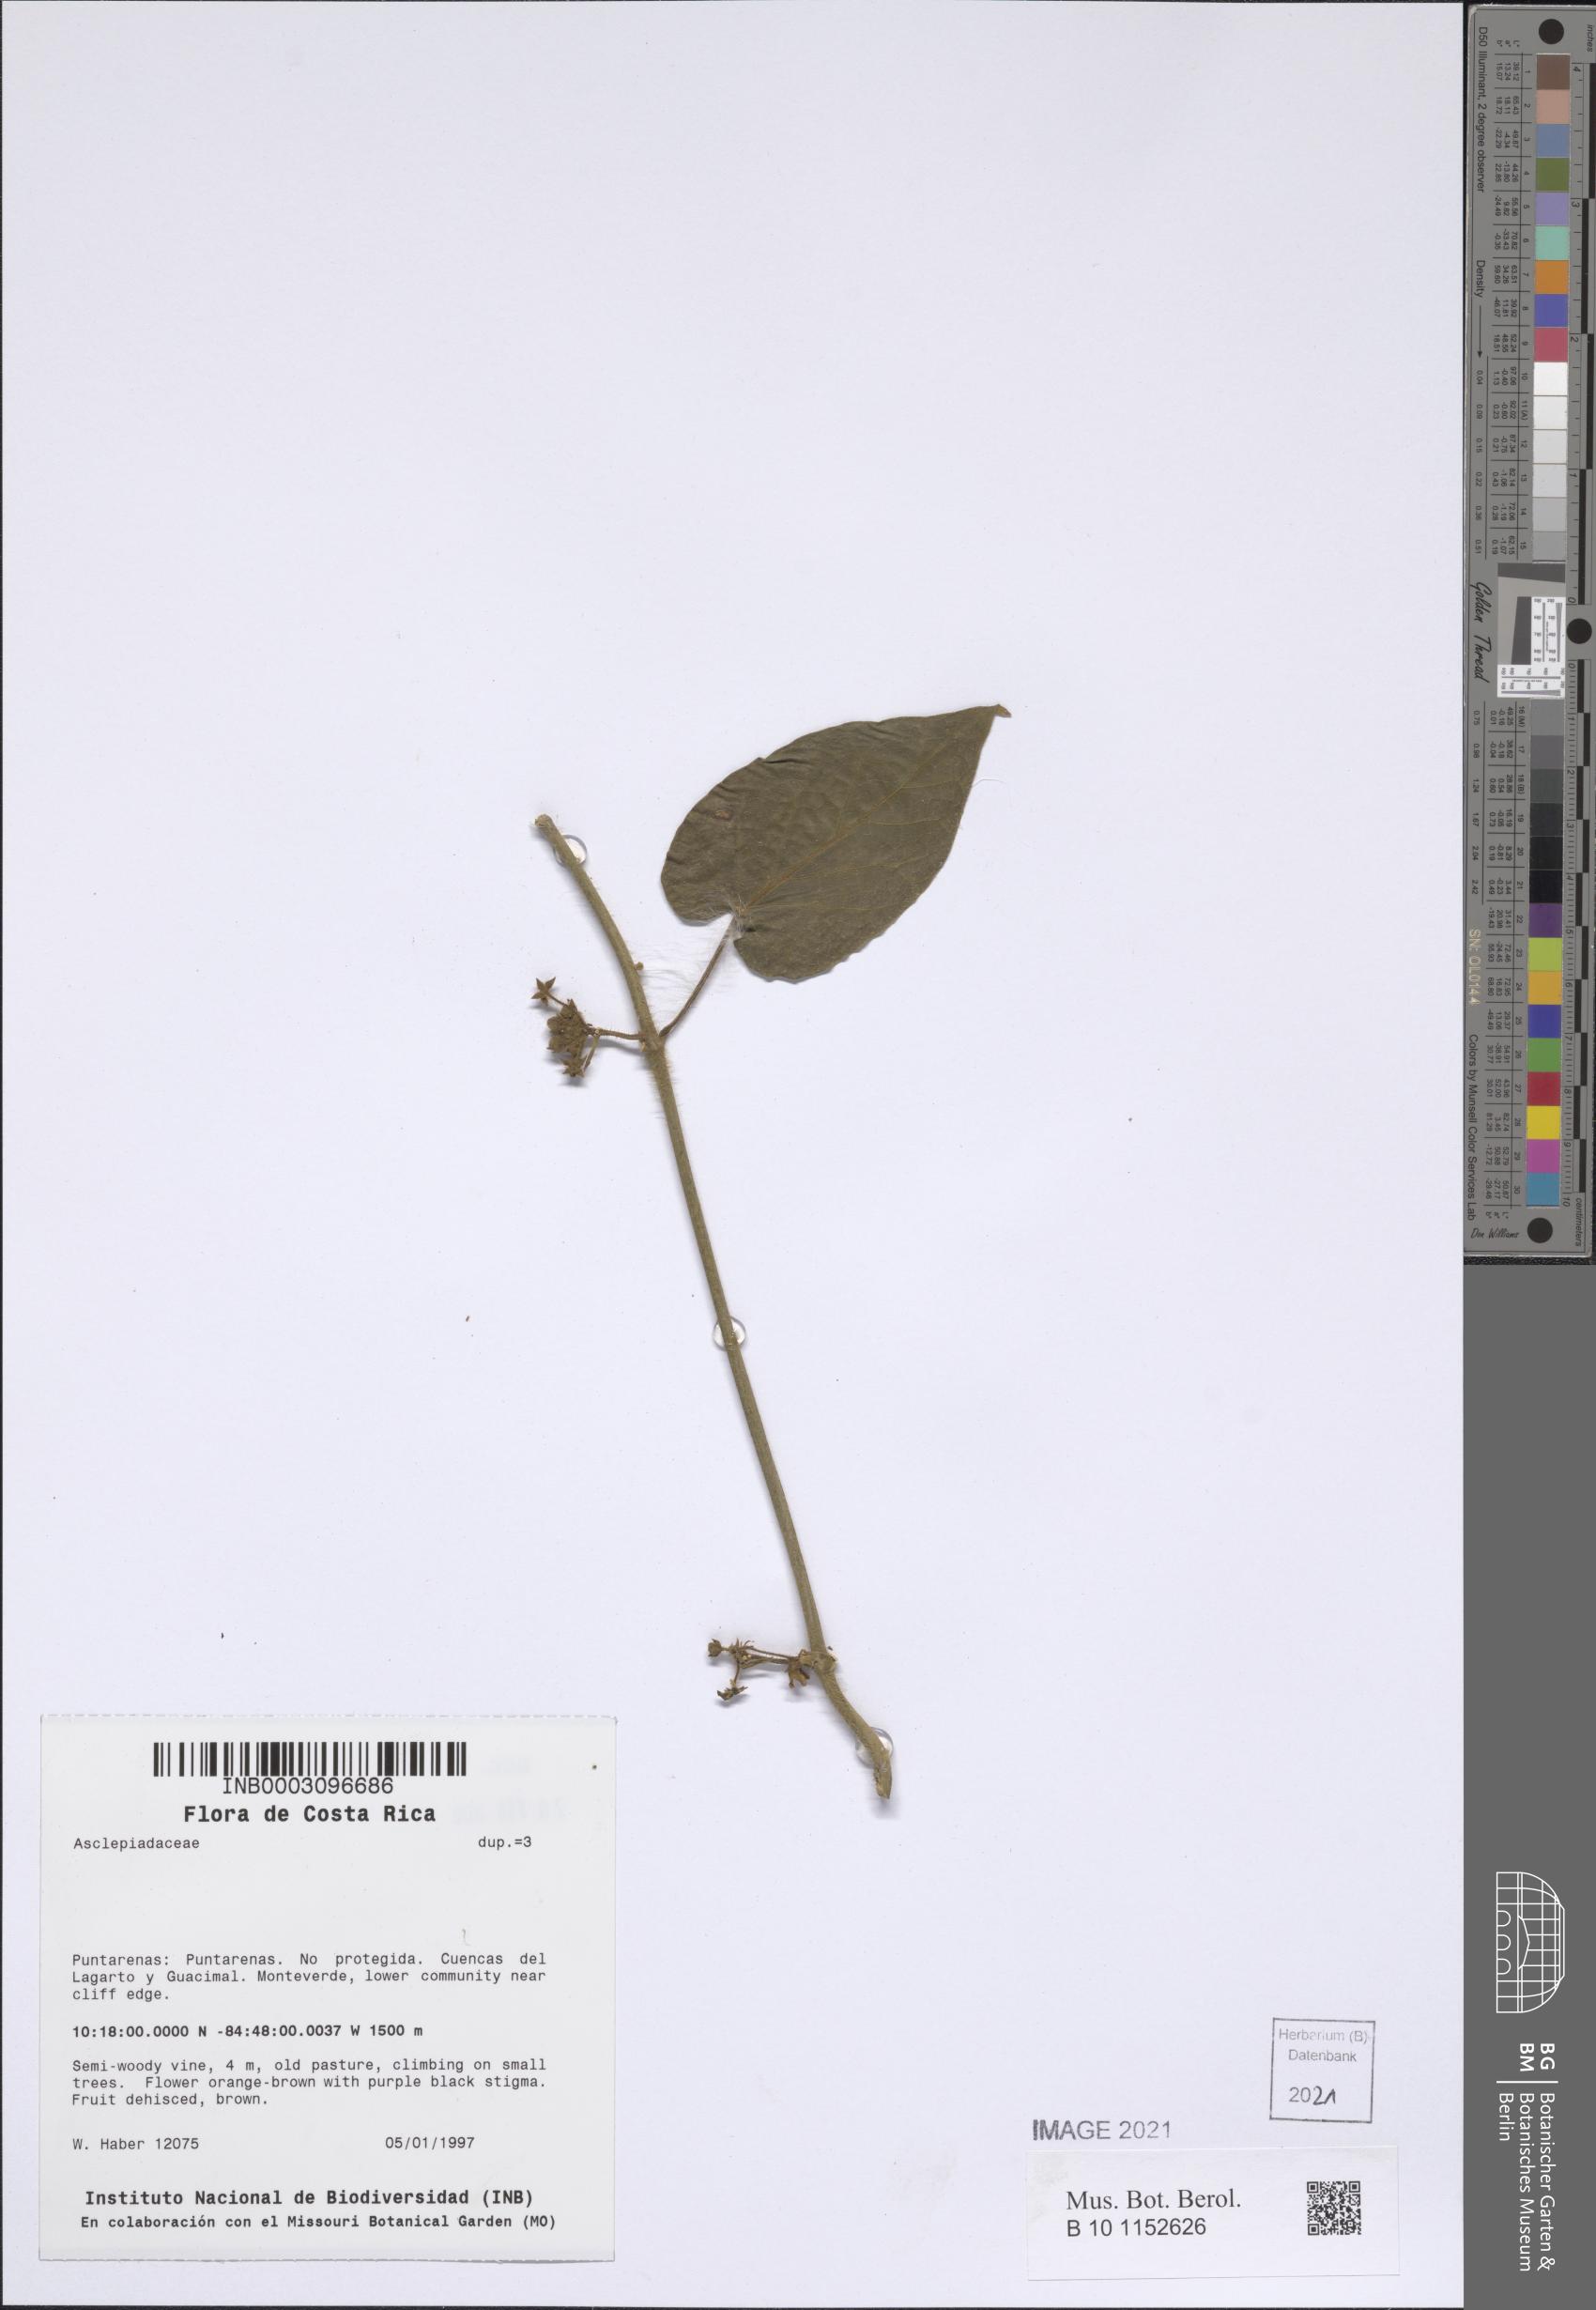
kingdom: Plantae
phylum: Tracheophyta
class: Magnoliopsida
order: Gentianales
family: Apocynaceae
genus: Matelea
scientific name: Matelea haberi
